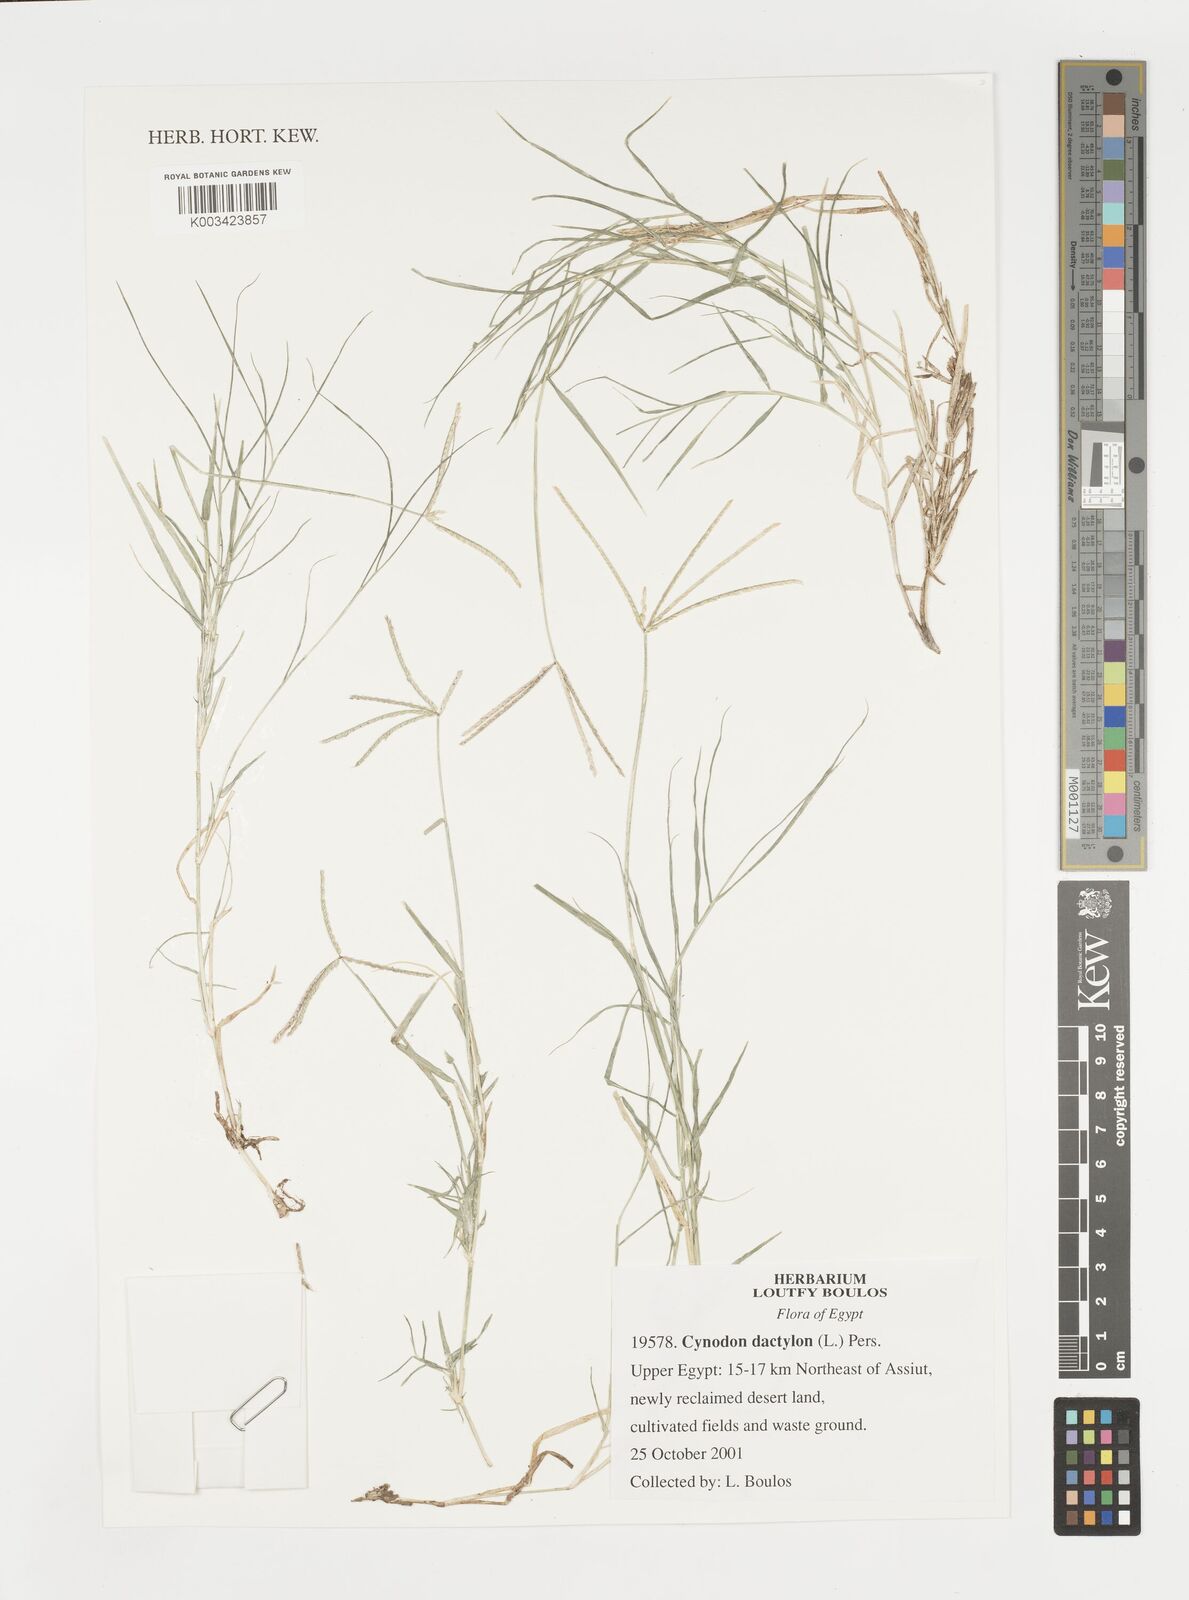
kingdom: Plantae
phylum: Tracheophyta
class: Liliopsida
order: Poales
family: Poaceae
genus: Cynodon
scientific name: Cynodon dactylon
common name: Bermuda grass
